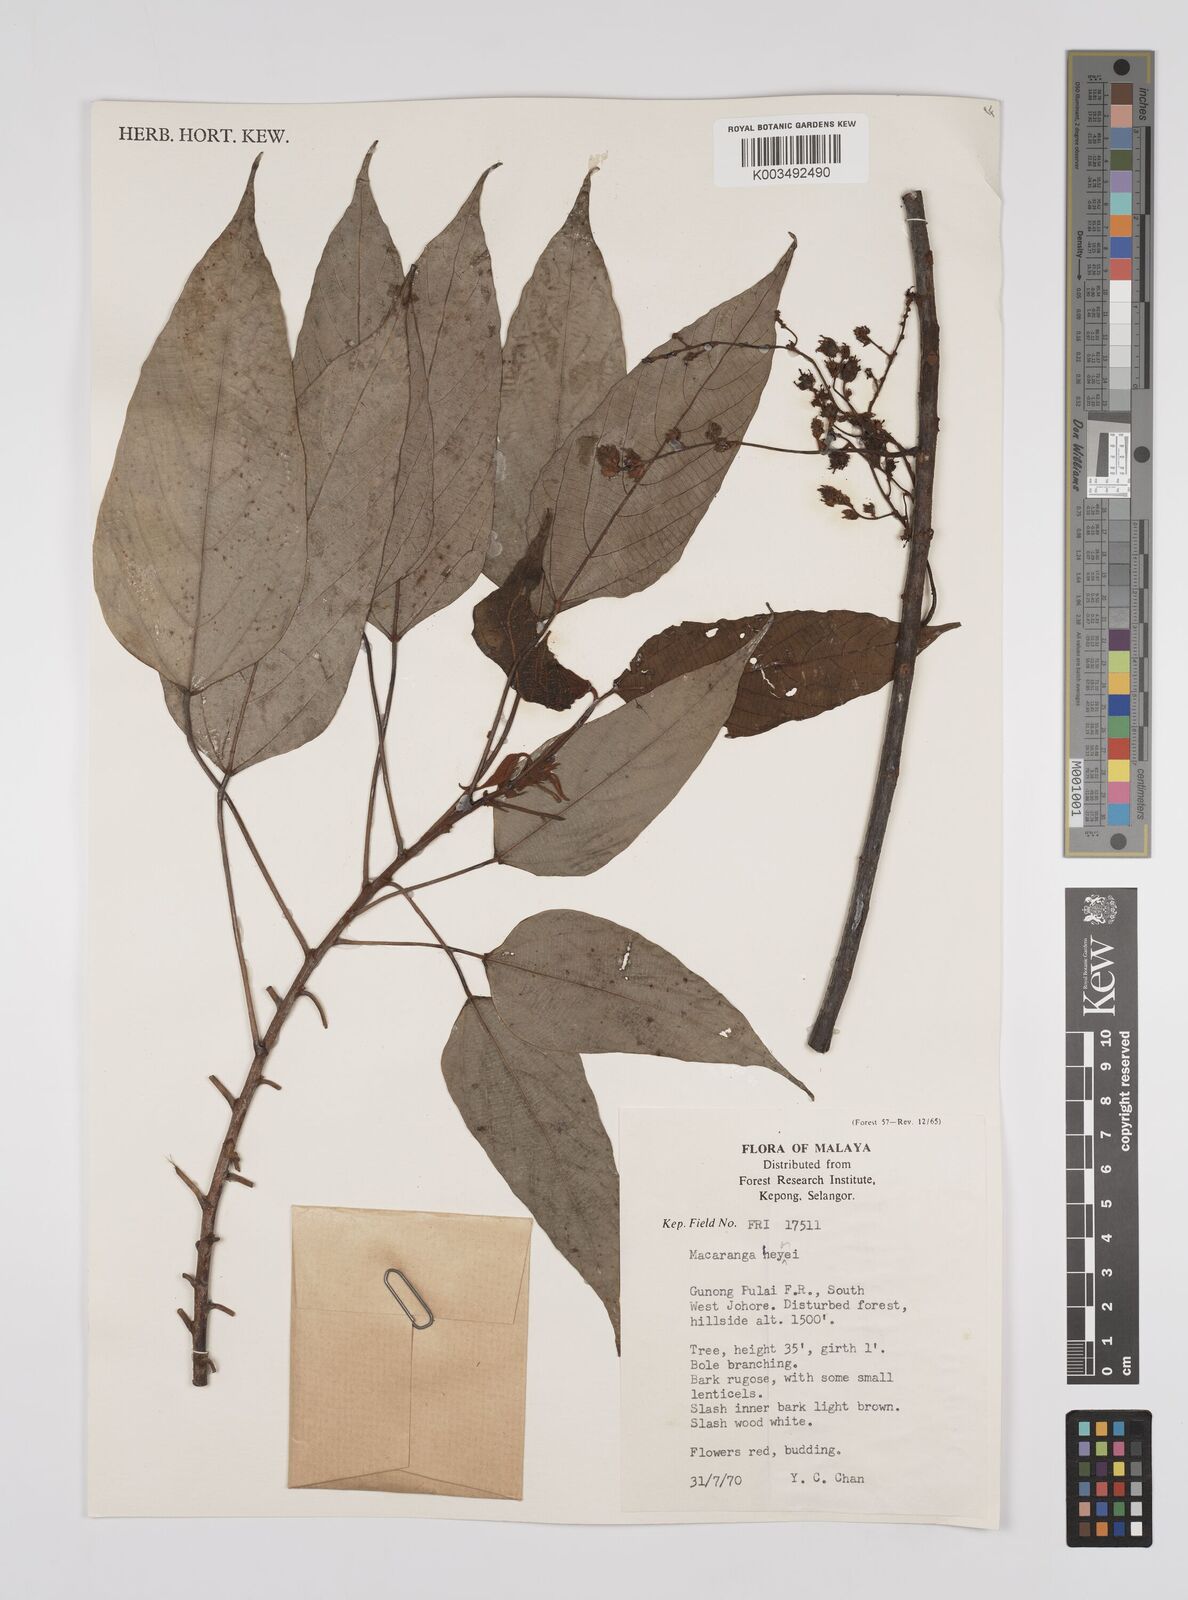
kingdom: Plantae
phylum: Tracheophyta
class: Magnoliopsida
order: Malpighiales
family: Euphorbiaceae
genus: Macaranga
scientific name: Macaranga heynei
